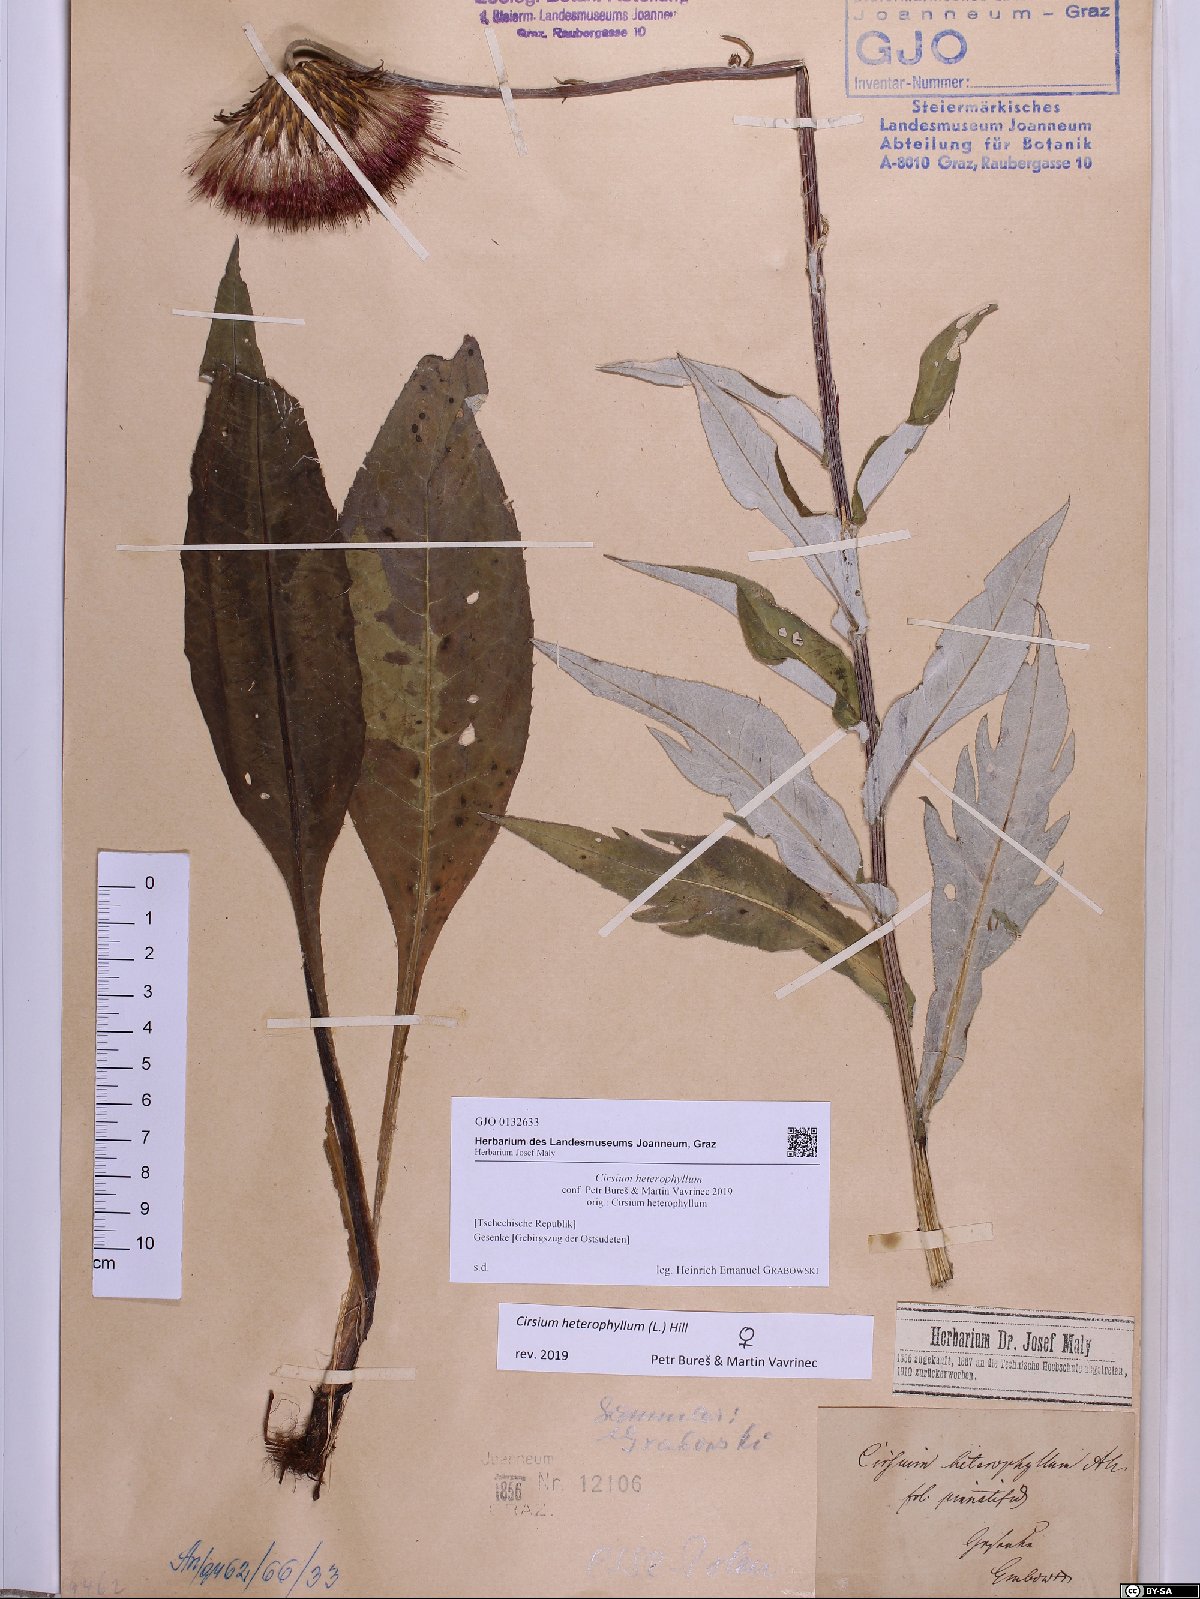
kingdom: Plantae
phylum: Tracheophyta
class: Magnoliopsida
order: Asterales
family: Asteraceae
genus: Cirsium
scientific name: Cirsium heterophyllum
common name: Melancholy thistle
